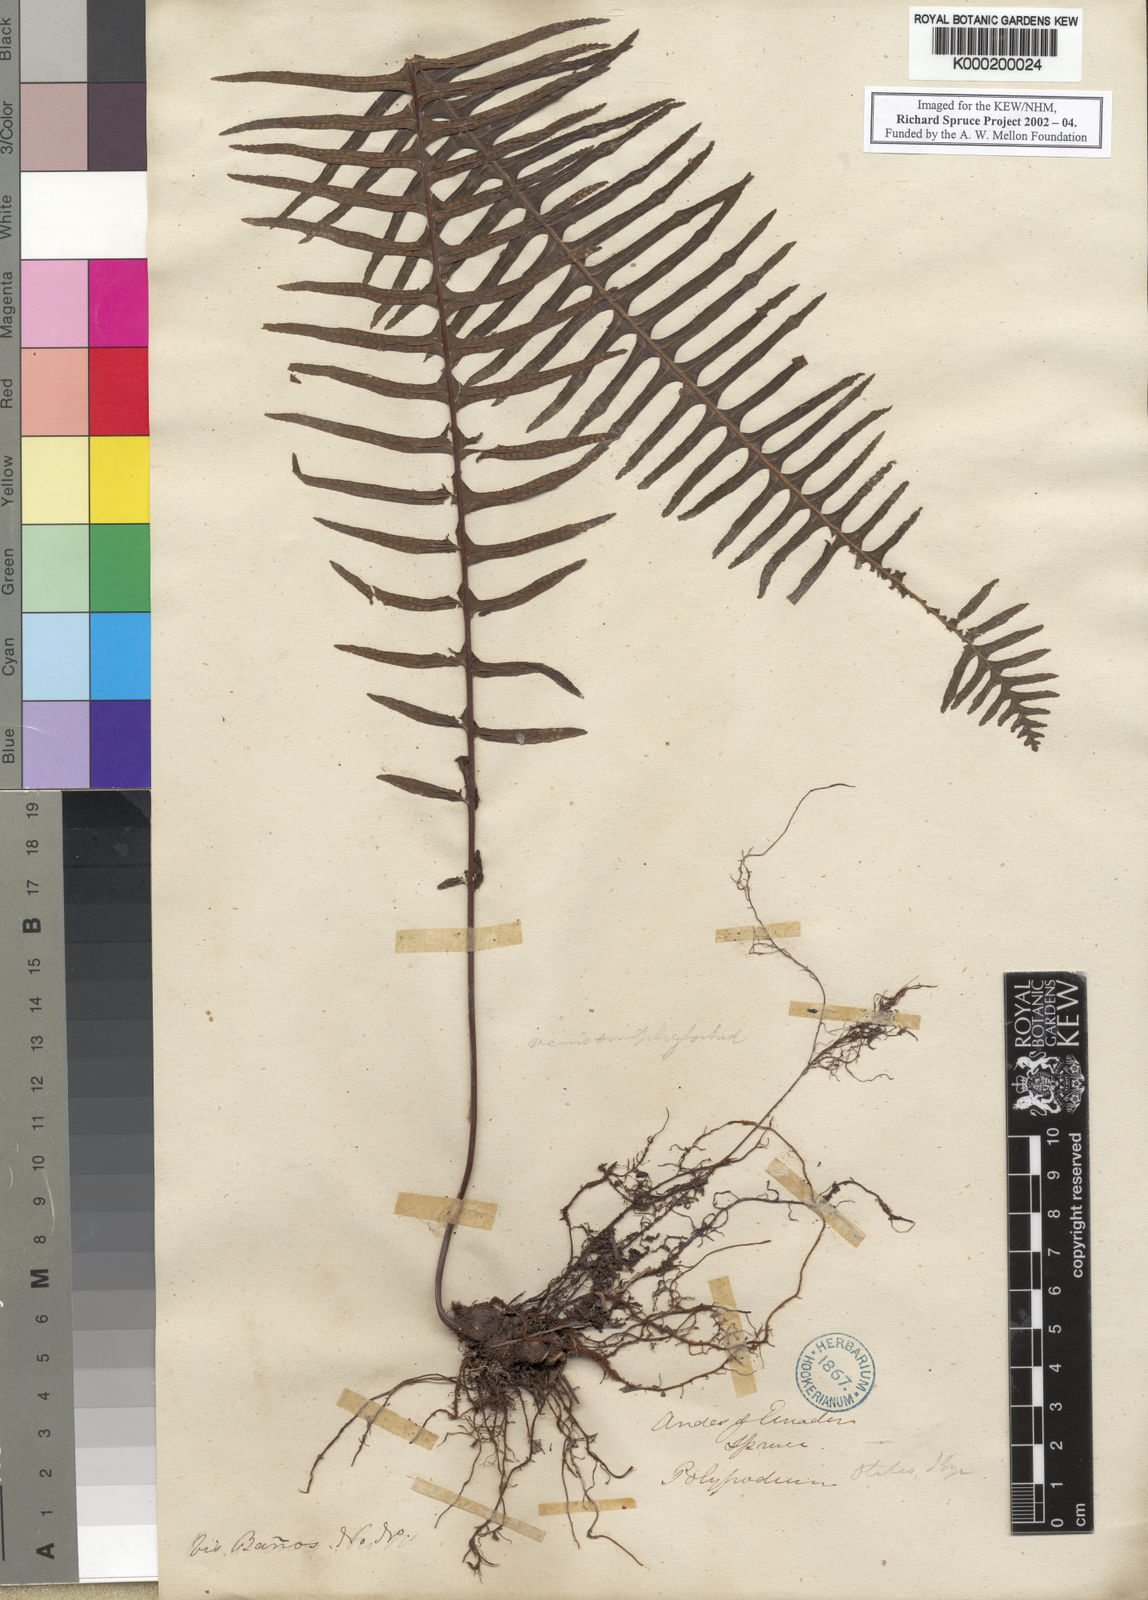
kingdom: Plantae
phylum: Tracheophyta
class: Polypodiopsida
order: Polypodiales
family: Polypodiaceae
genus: Pecluma
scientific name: Pecluma pectinata
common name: Msasa fern
